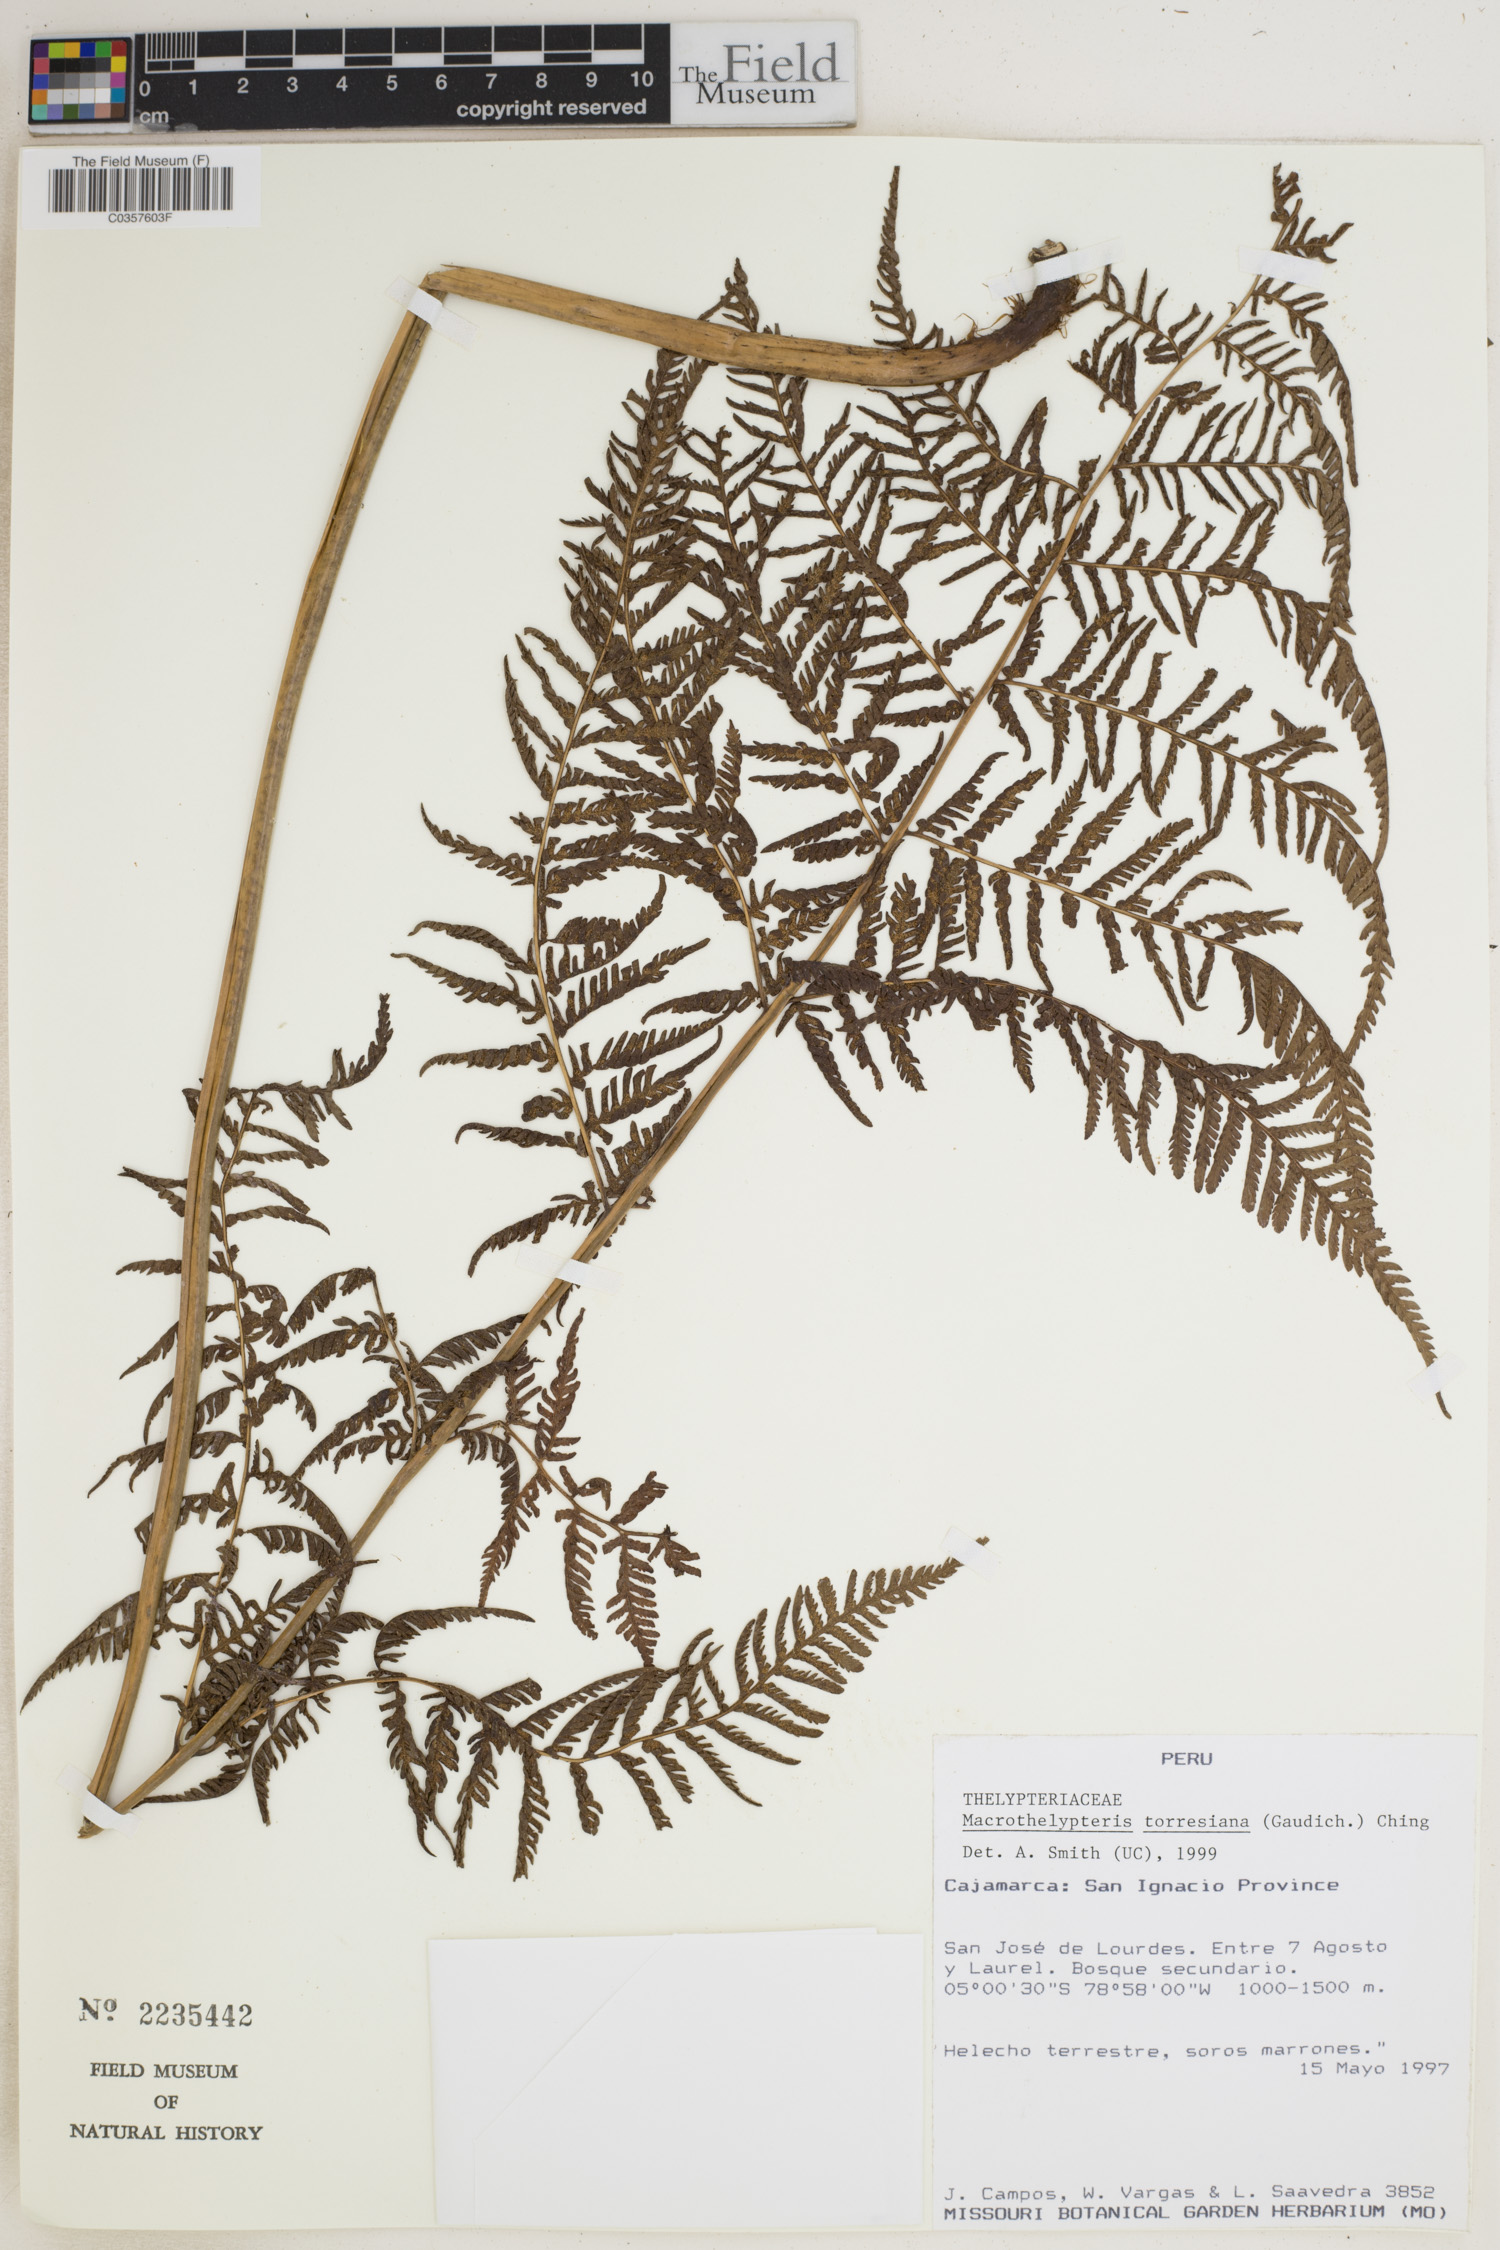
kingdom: Plantae
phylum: Tracheophyta
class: Polypodiopsida
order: Polypodiales
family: Thelypteridaceae
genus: Macrothelypteris
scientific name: Macrothelypteris torresiana
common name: Swordfern
